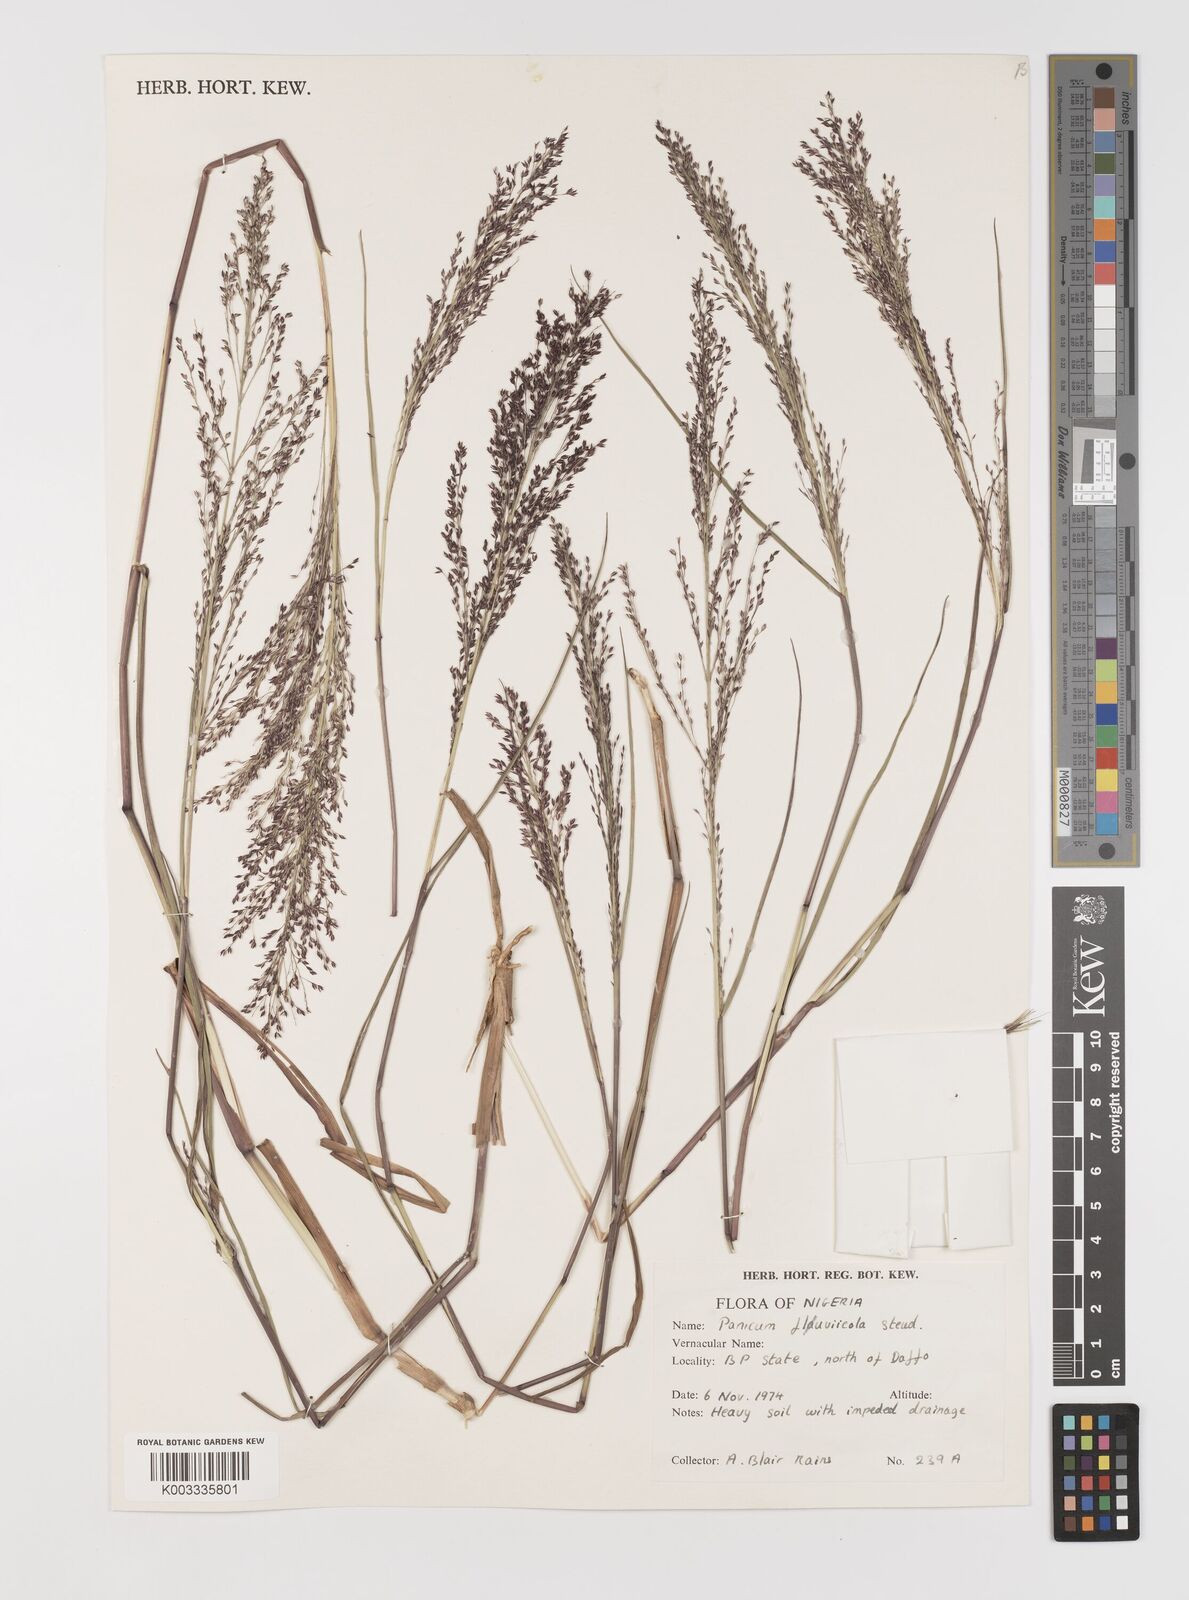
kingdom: Plantae
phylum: Tracheophyta
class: Liliopsida
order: Poales
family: Poaceae
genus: Panicum
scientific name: Panicum fluviicola
